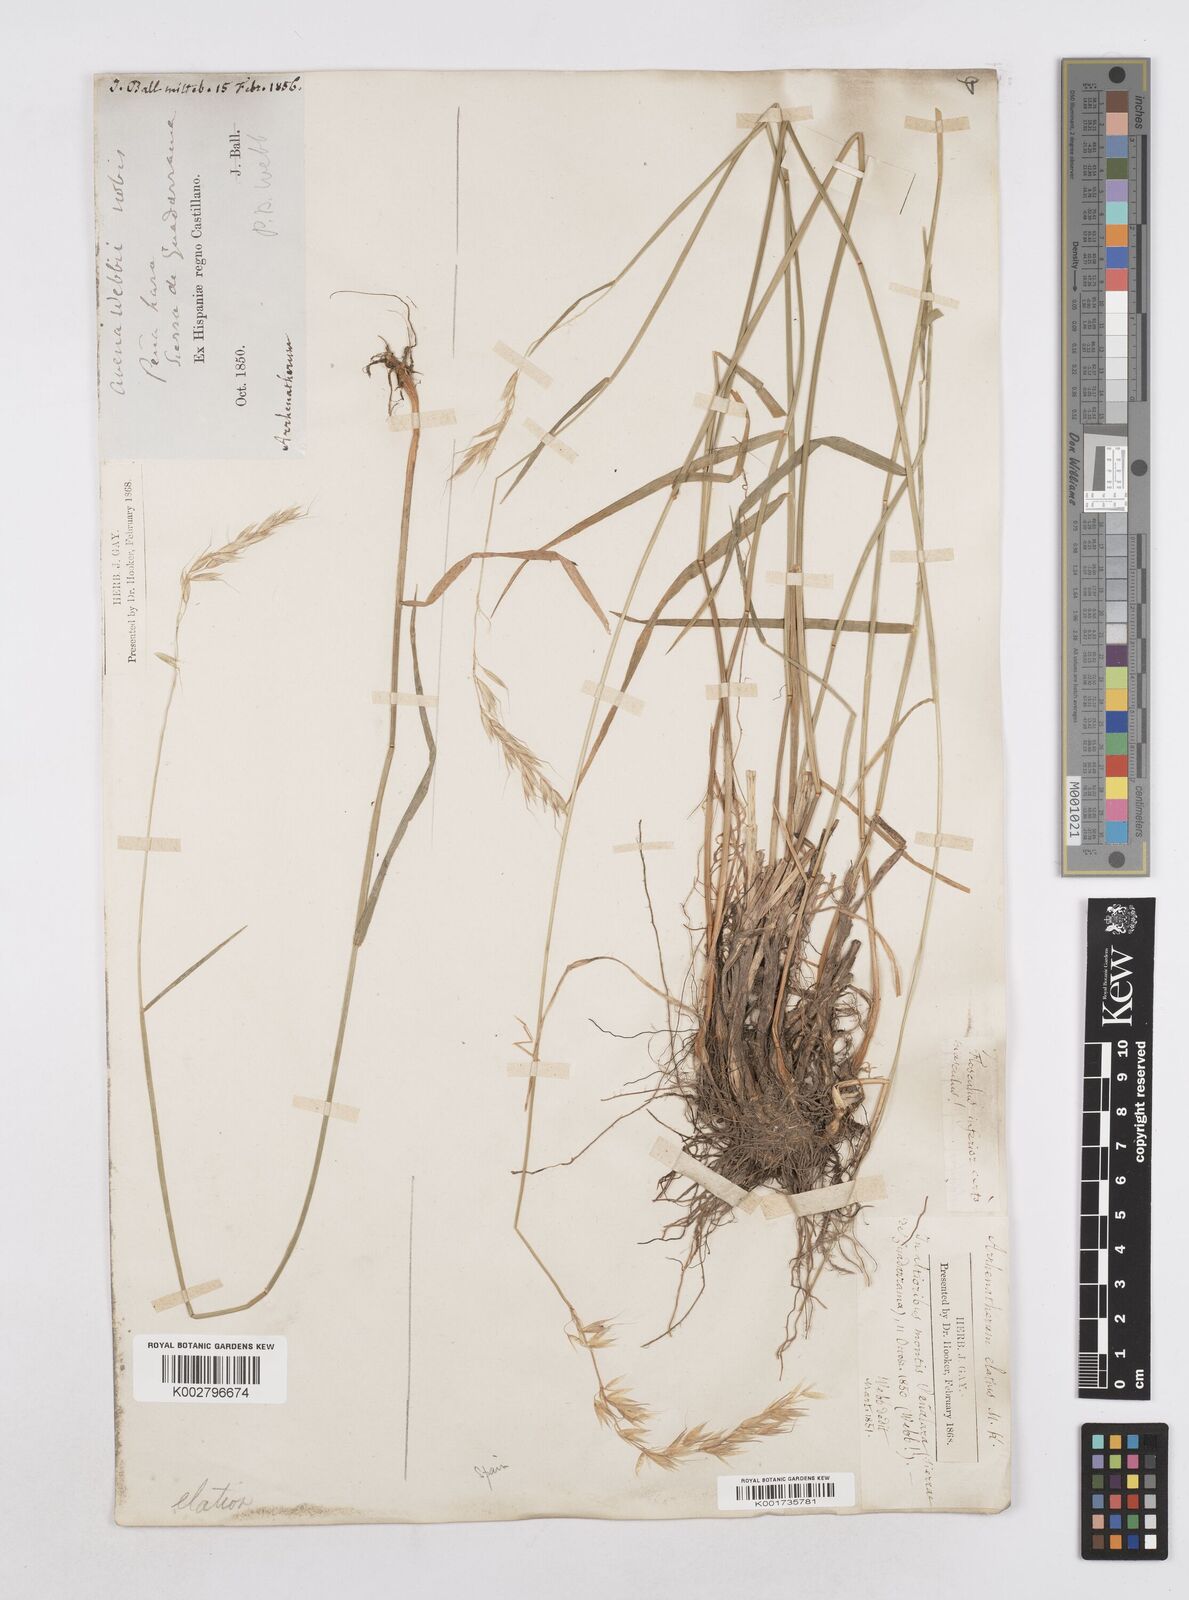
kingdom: Plantae
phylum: Tracheophyta
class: Liliopsida
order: Poales
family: Poaceae
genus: Arrhenatherum
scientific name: Arrhenatherum elatius
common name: Tall oatgrass
